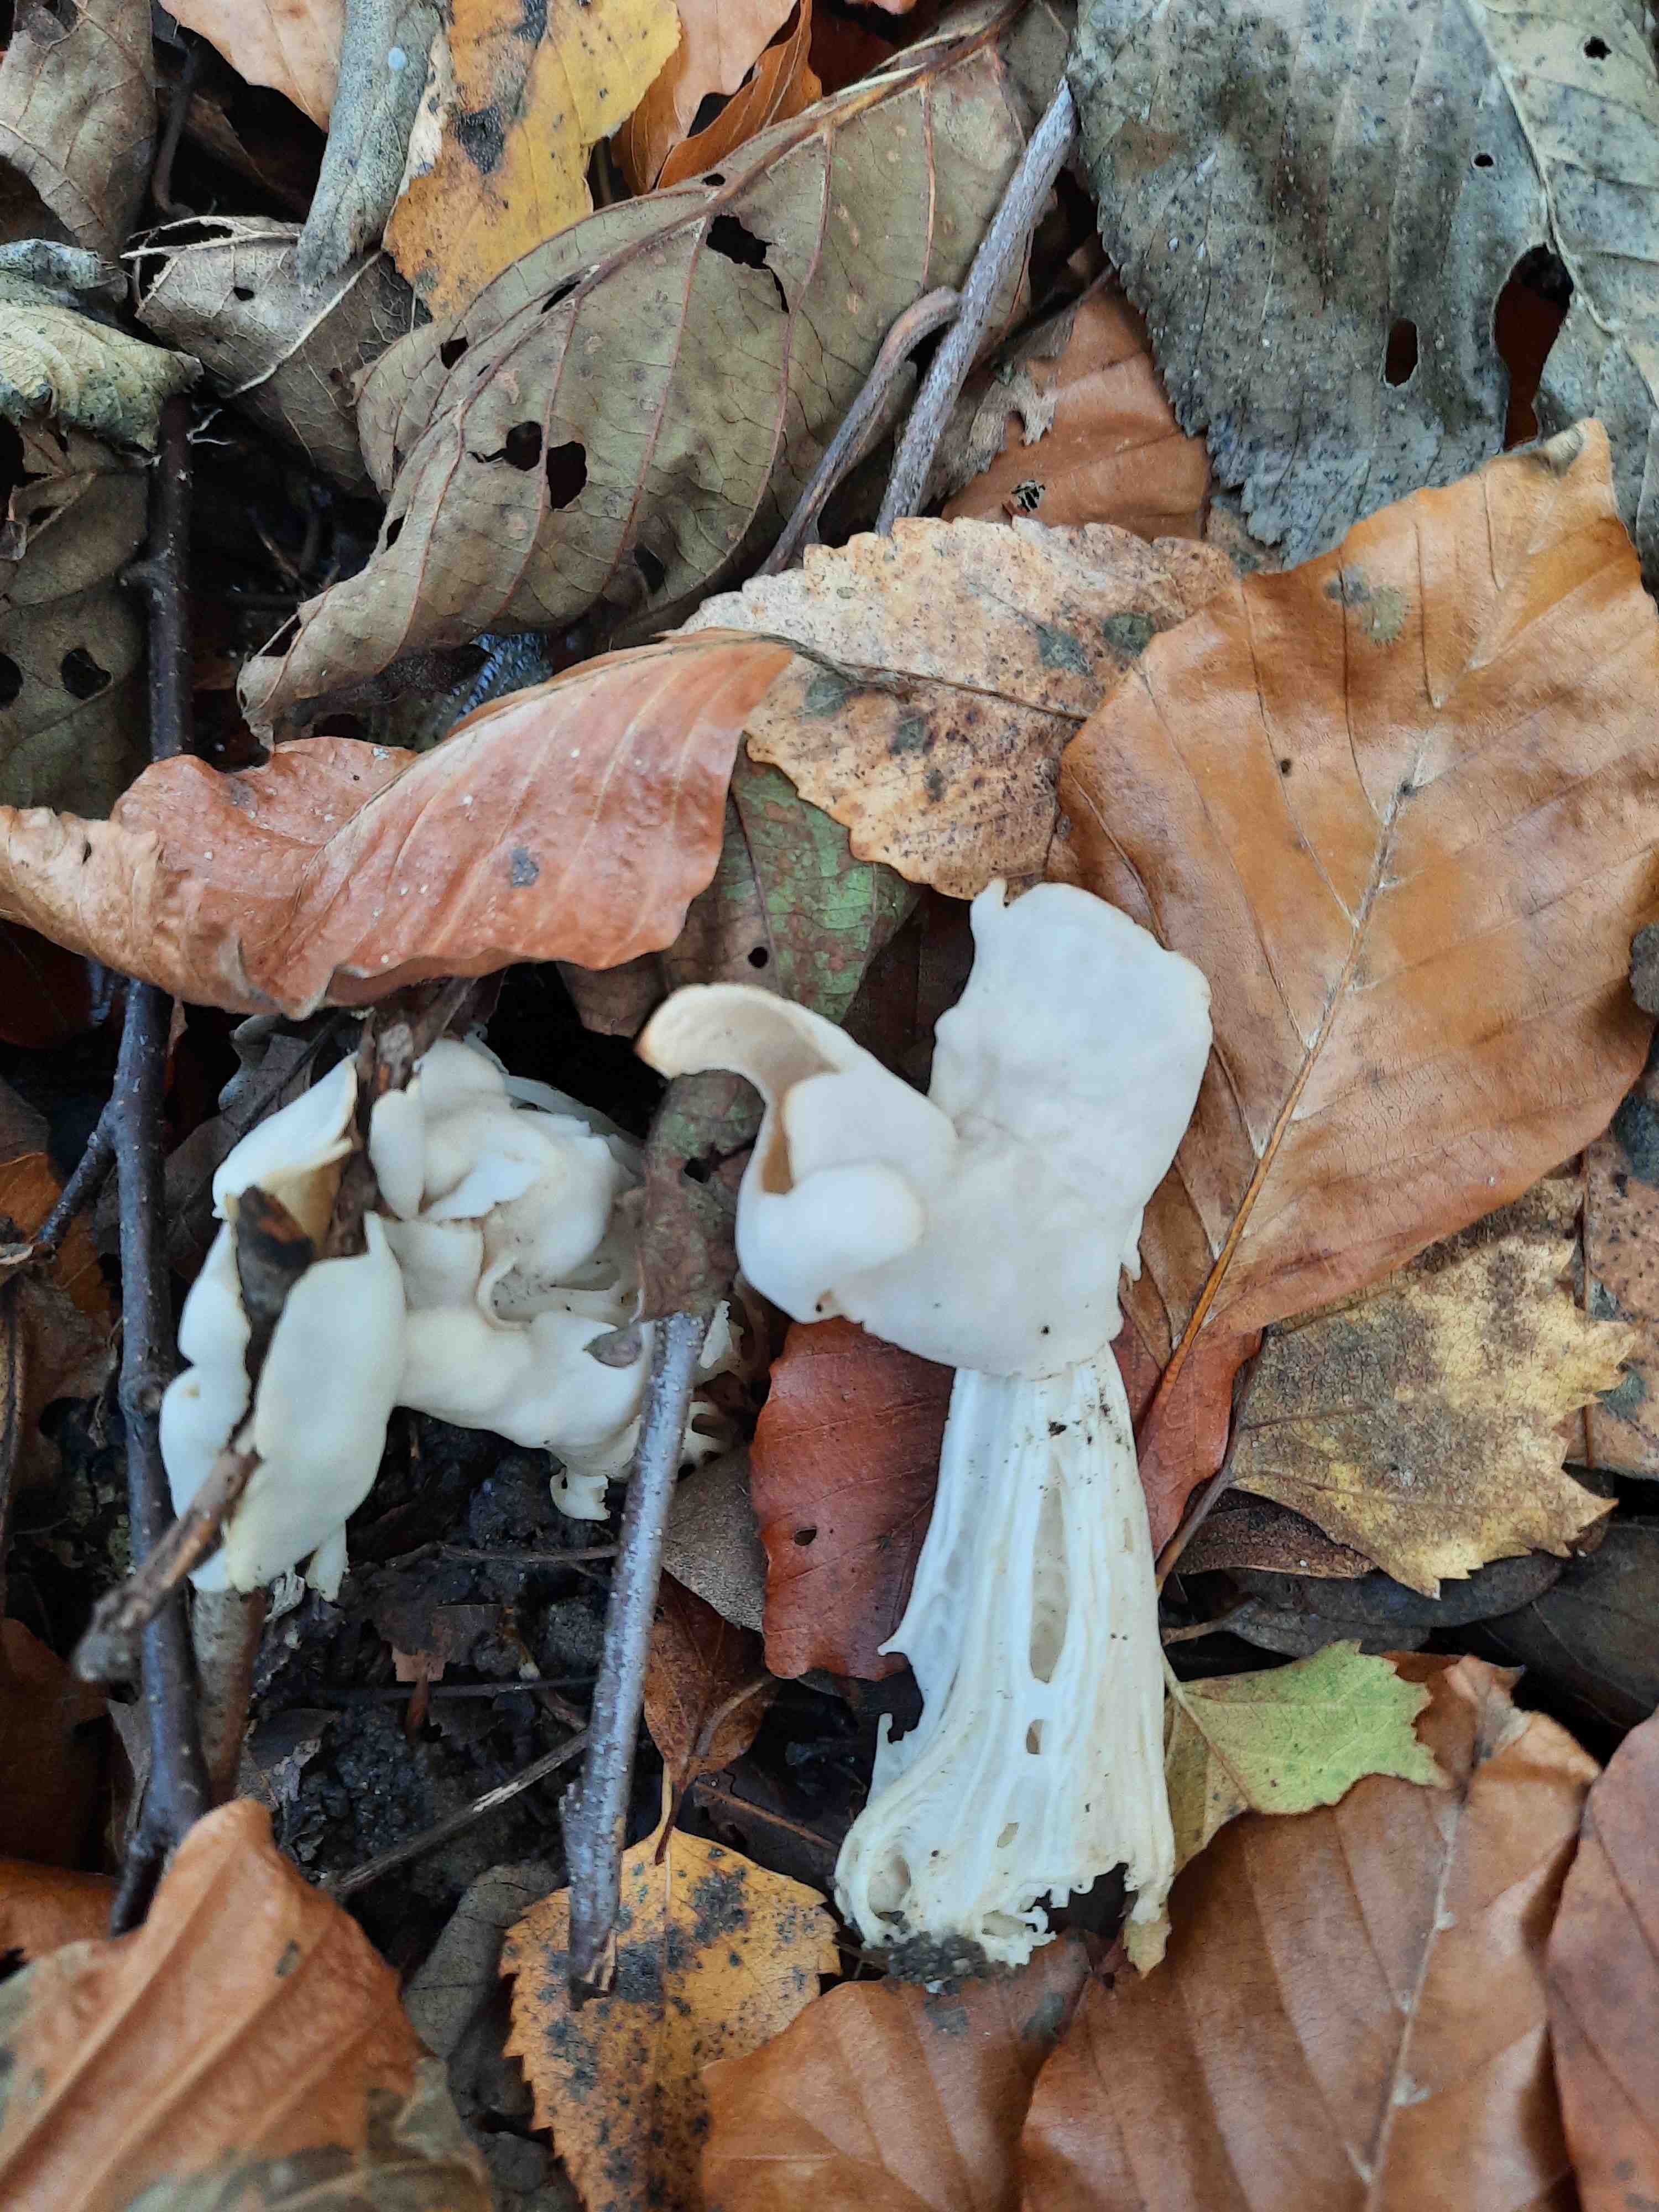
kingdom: Fungi
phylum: Ascomycota
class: Pezizomycetes
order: Pezizales
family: Helvellaceae
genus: Helvella
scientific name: Helvella crispa
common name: kruset foldhat
